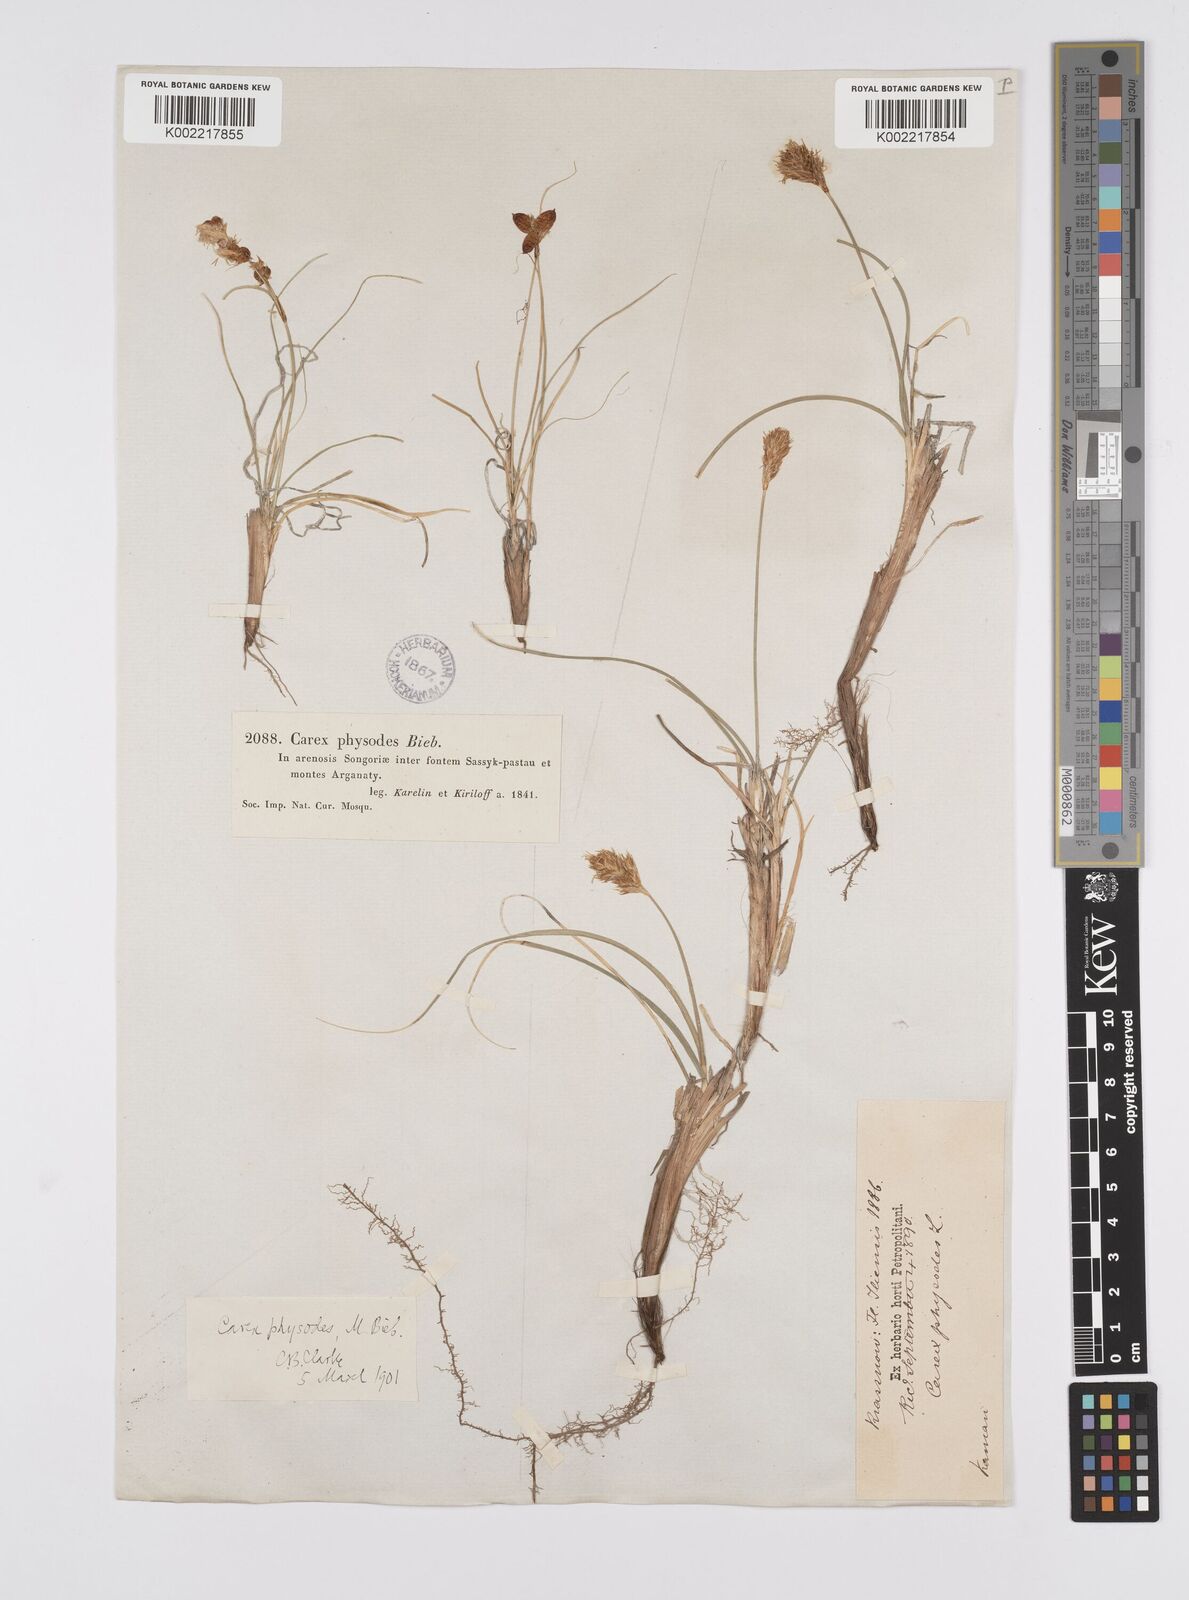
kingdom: Plantae
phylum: Tracheophyta
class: Liliopsida
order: Poales
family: Cyperaceae
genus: Carex
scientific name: Carex physodes
